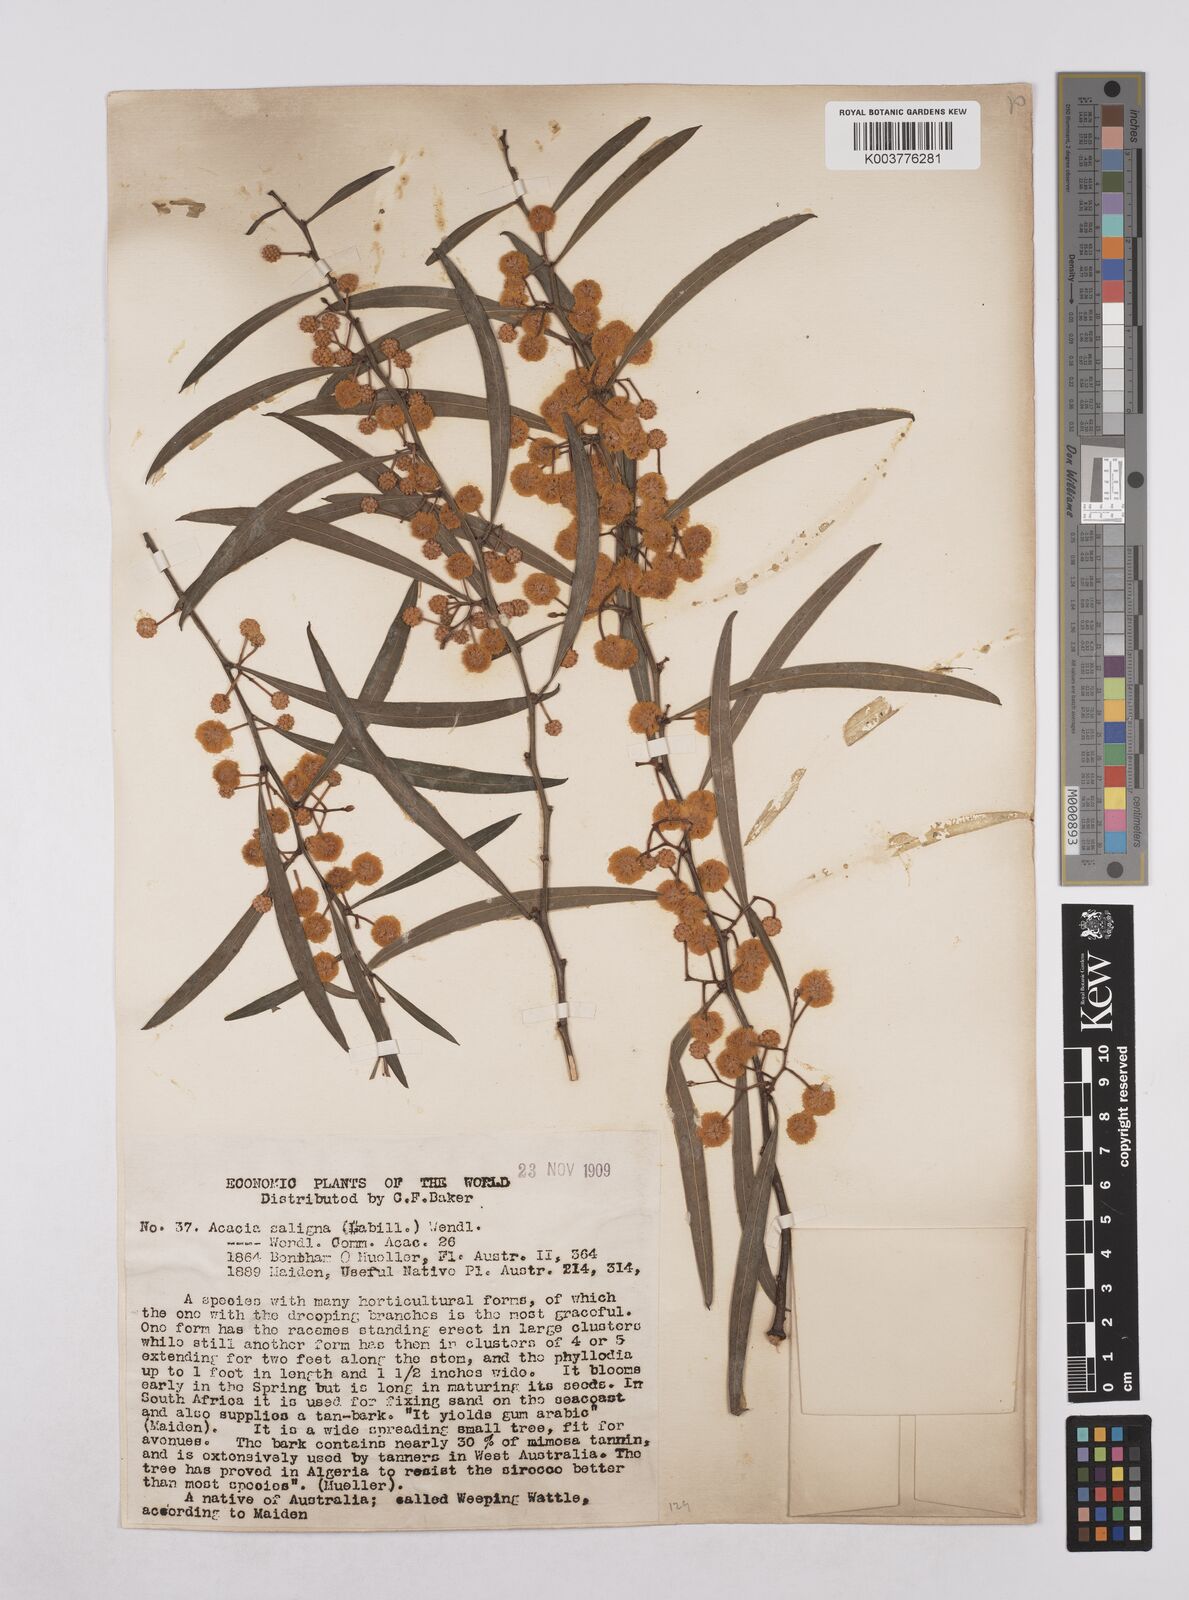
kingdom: Plantae
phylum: Tracheophyta
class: Magnoliopsida
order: Fabales
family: Fabaceae
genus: Acacia
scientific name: Acacia saligna
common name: Orange wattle
